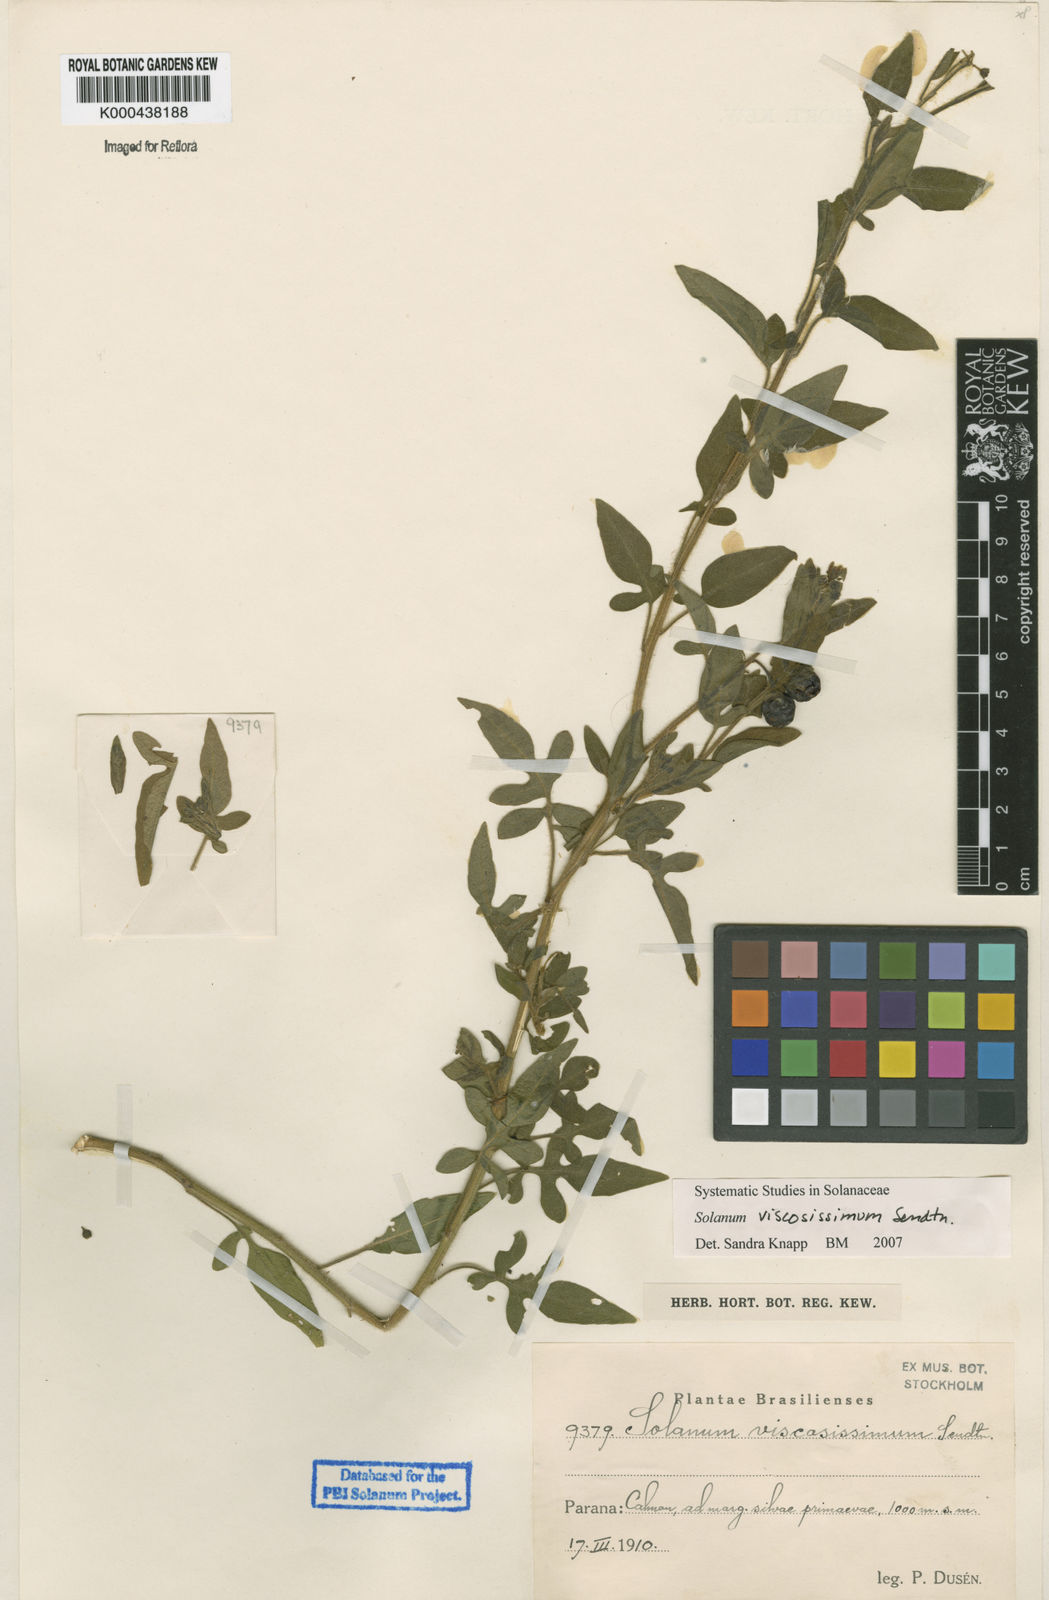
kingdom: Plantae
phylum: Tracheophyta
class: Magnoliopsida
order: Solanales
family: Solanaceae
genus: Solanum
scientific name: Solanum viscosissimum
